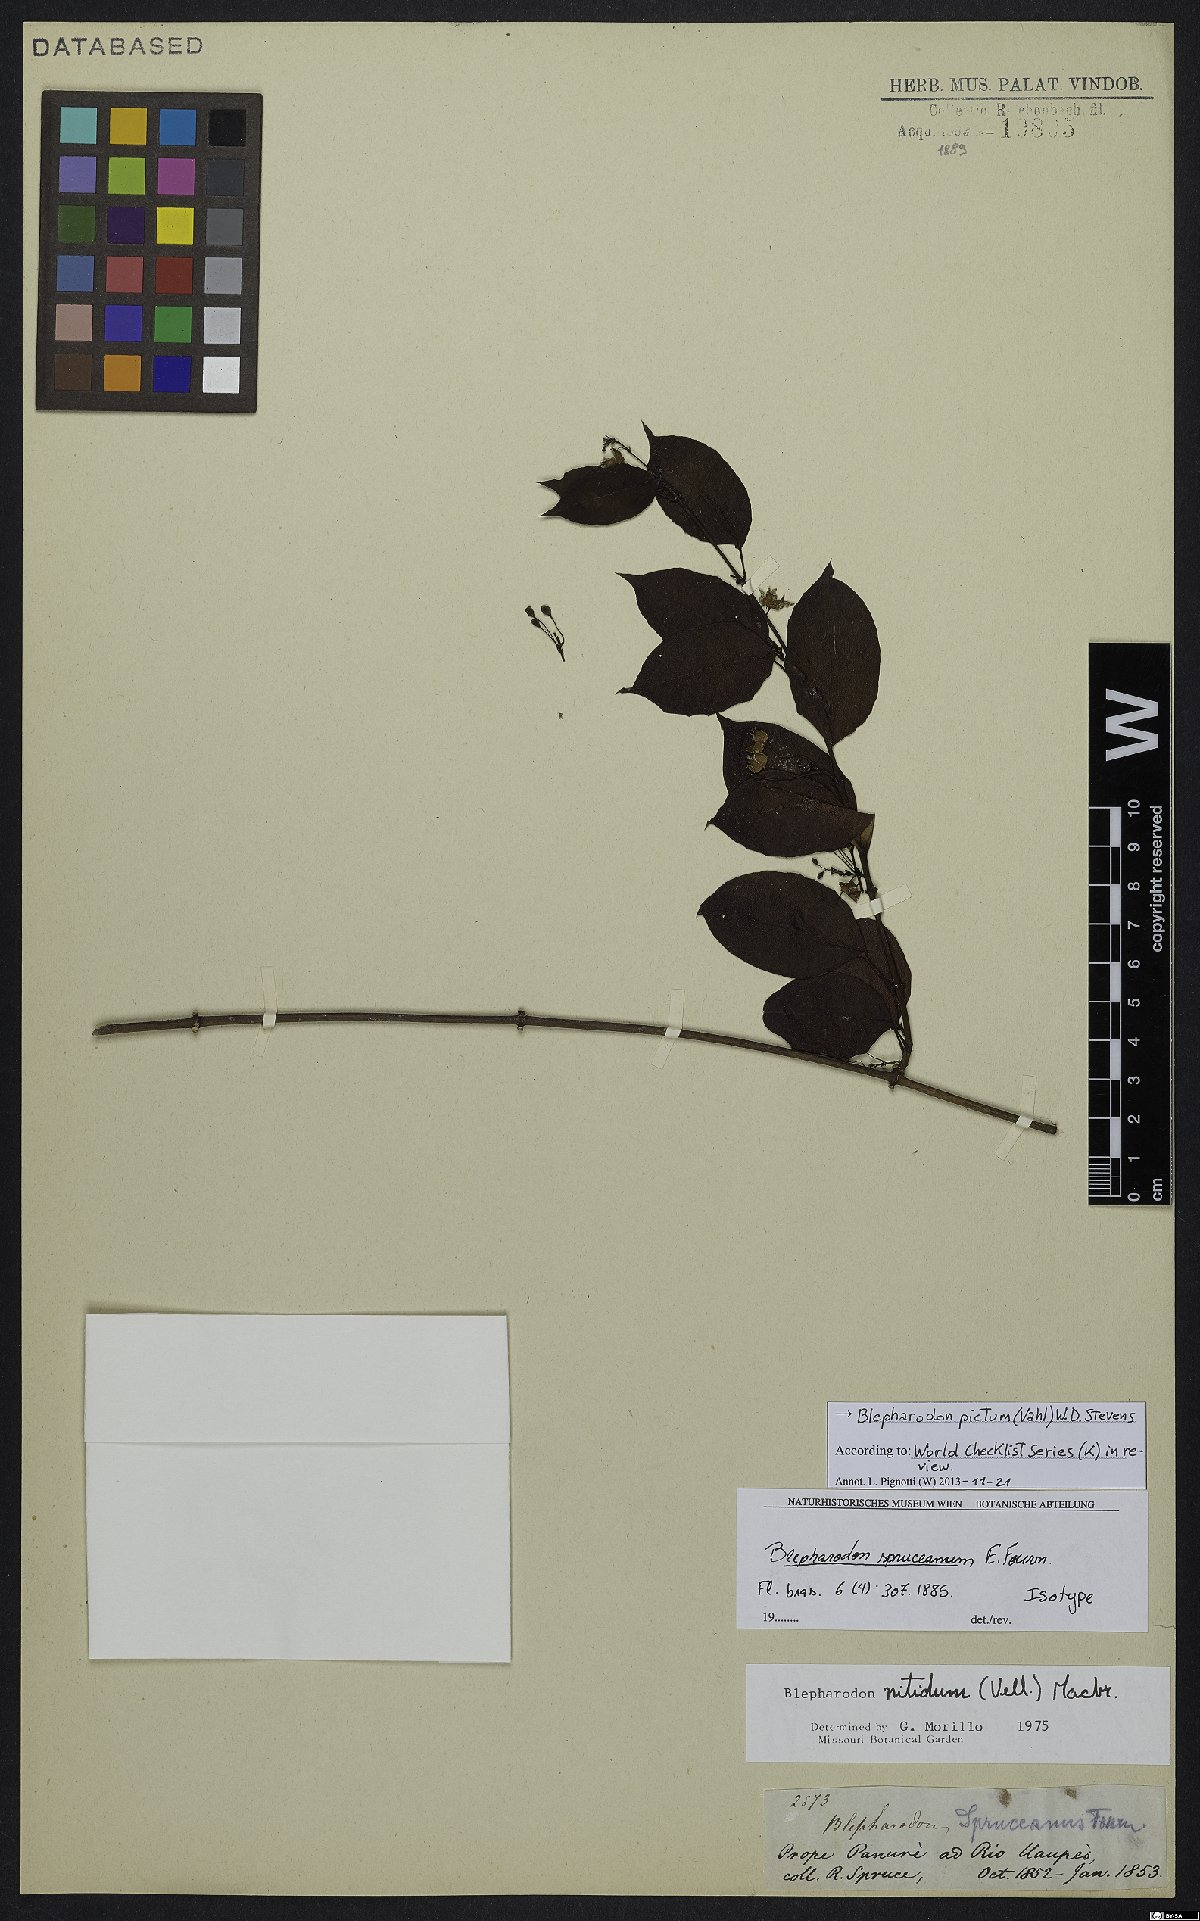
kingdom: Plantae
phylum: Tracheophyta
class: Magnoliopsida
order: Gentianales
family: Apocynaceae
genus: Blepharodon
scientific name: Blepharodon pictum
